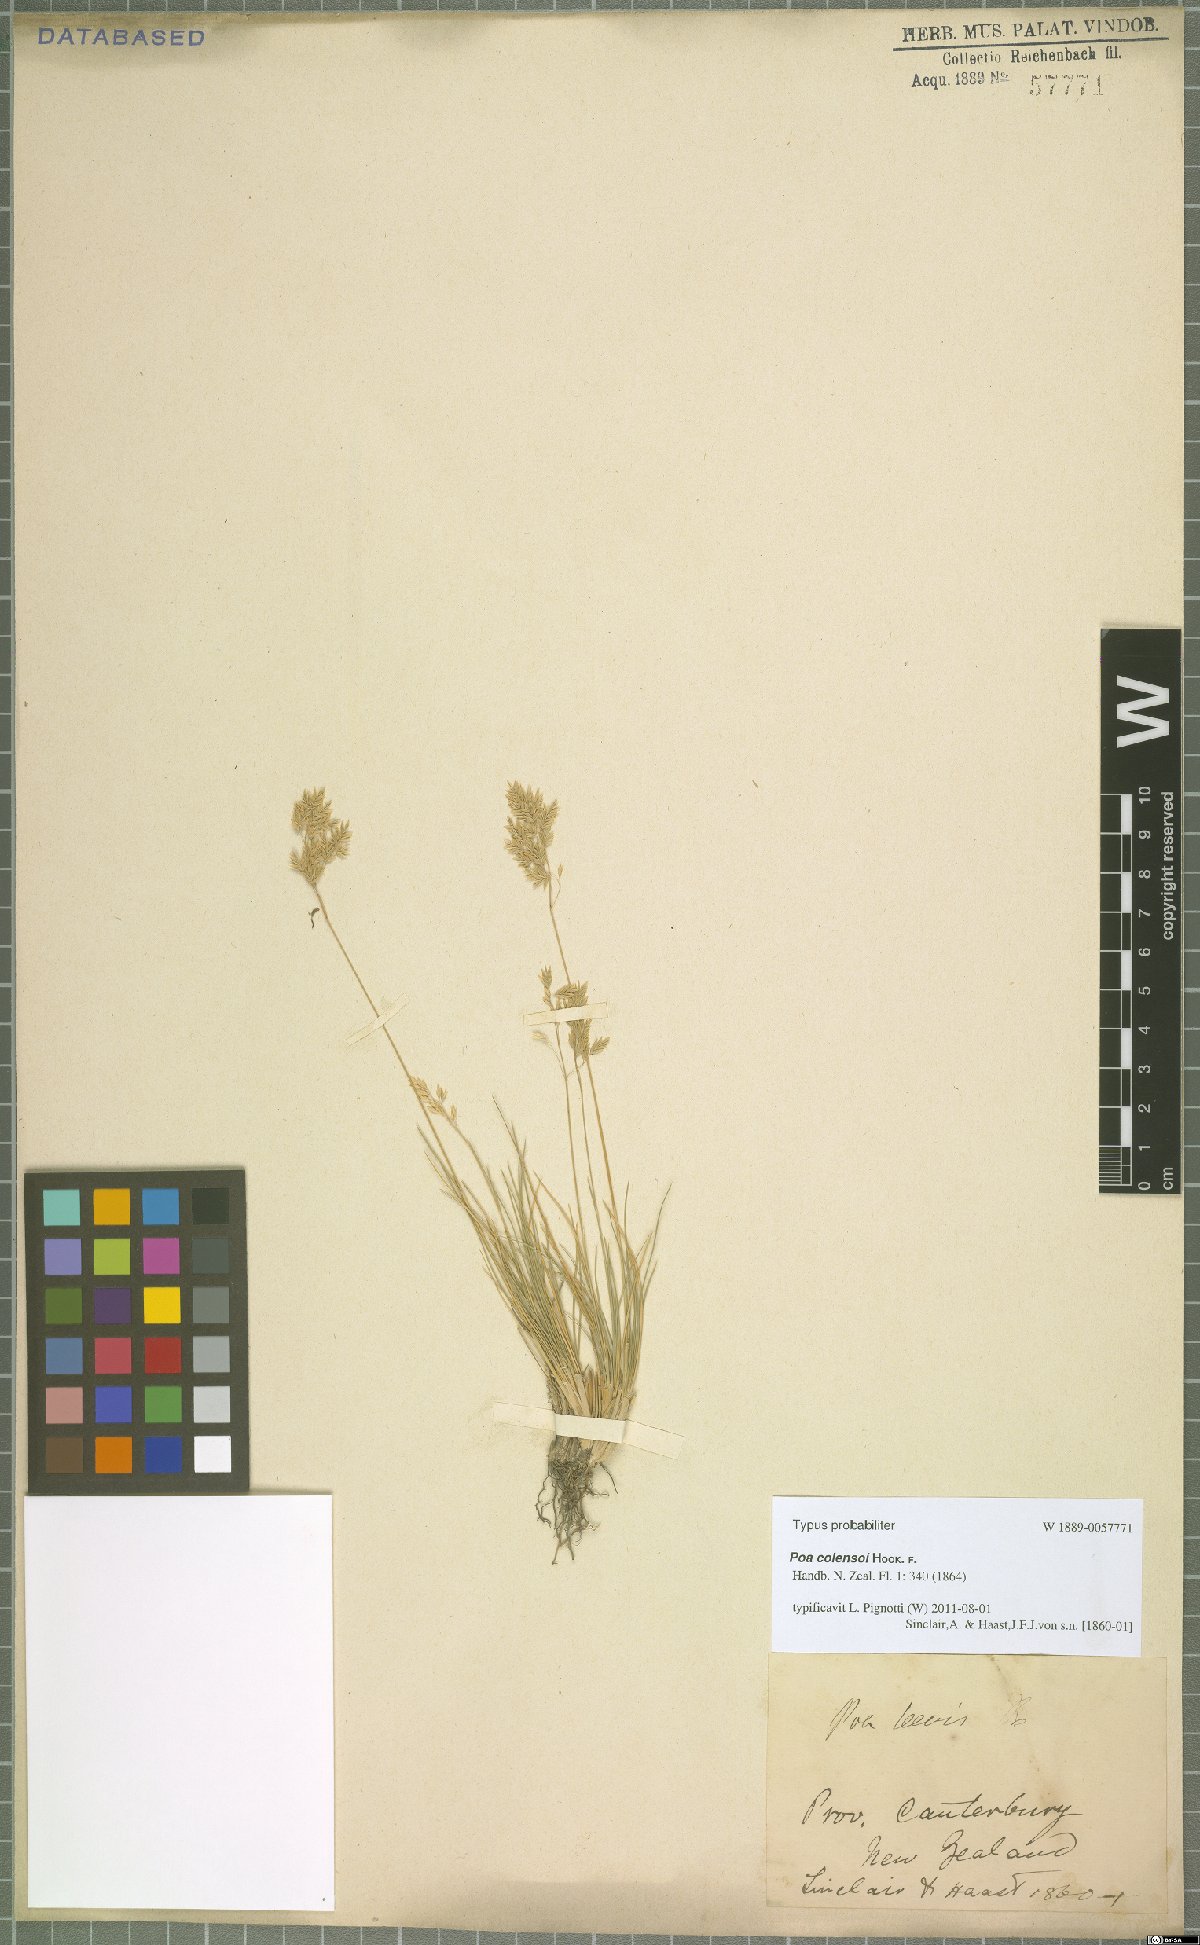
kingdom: Plantae
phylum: Tracheophyta
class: Liliopsida
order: Poales
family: Poaceae
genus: Poa
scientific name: Poa colensoi
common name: Blue tussock
